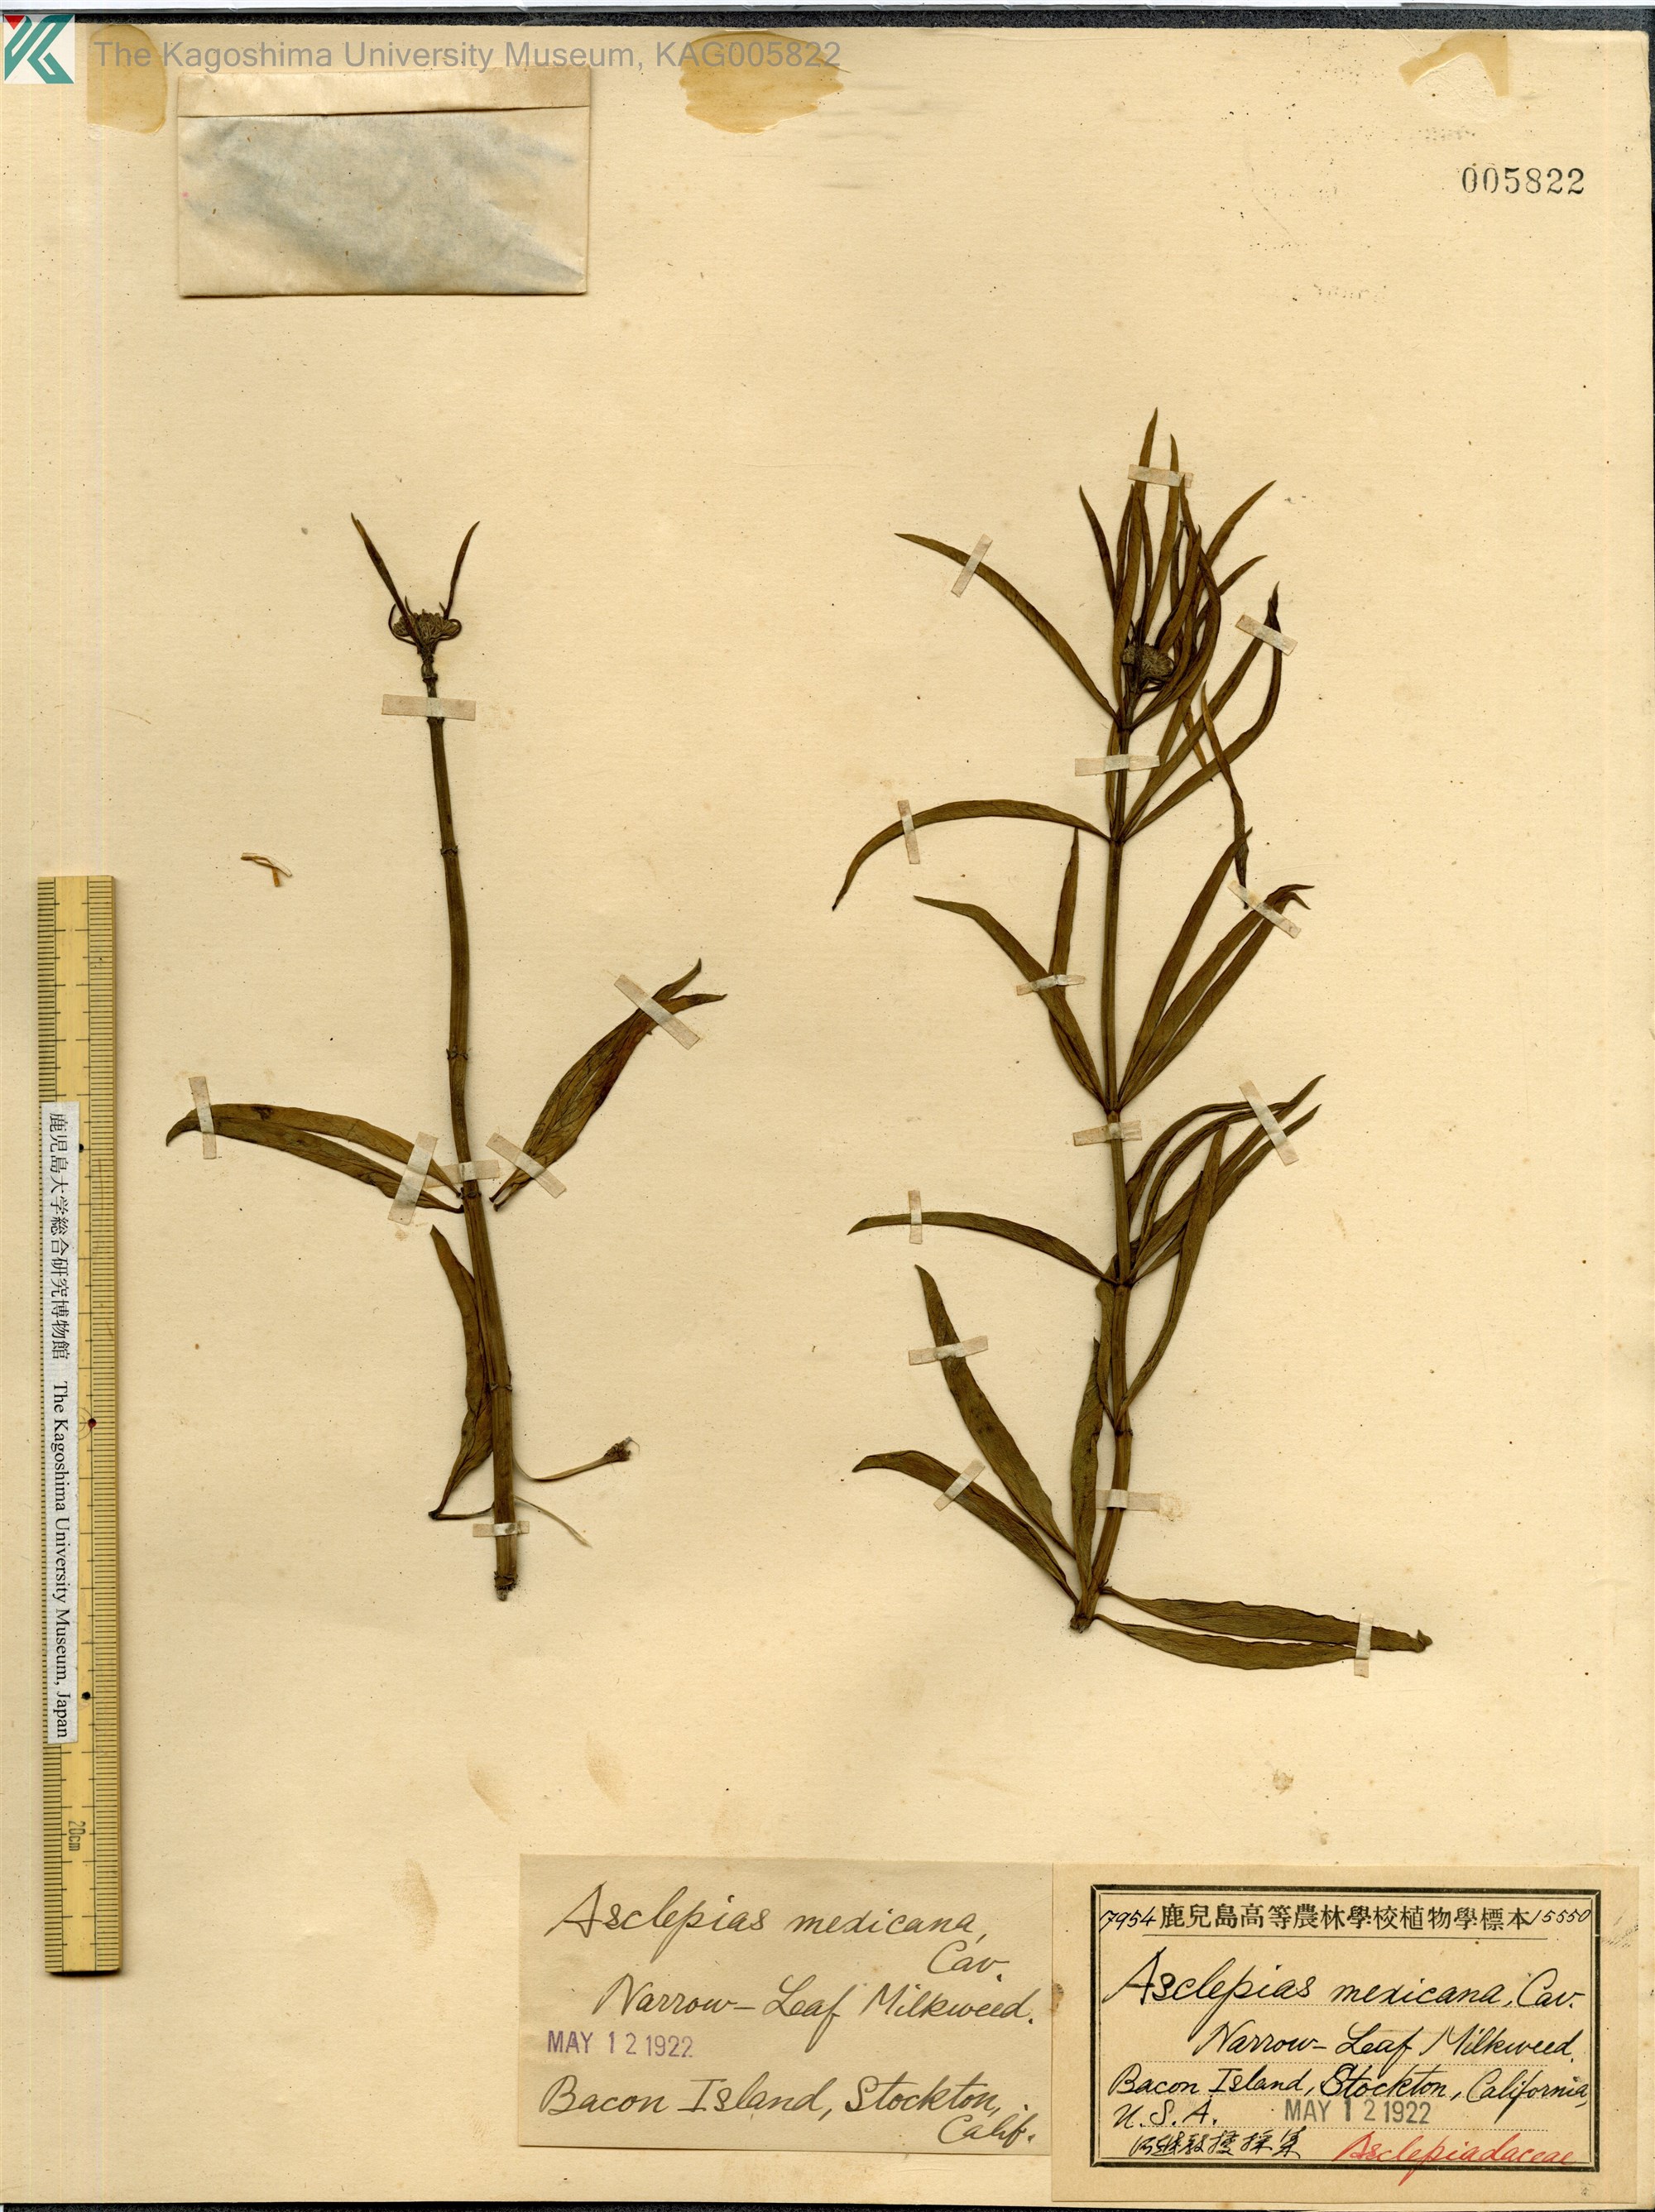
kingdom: Plantae
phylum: Tracheophyta
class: Magnoliopsida
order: Gentianales
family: Apocynaceae
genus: Asclepias
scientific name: Asclepias mexicana
